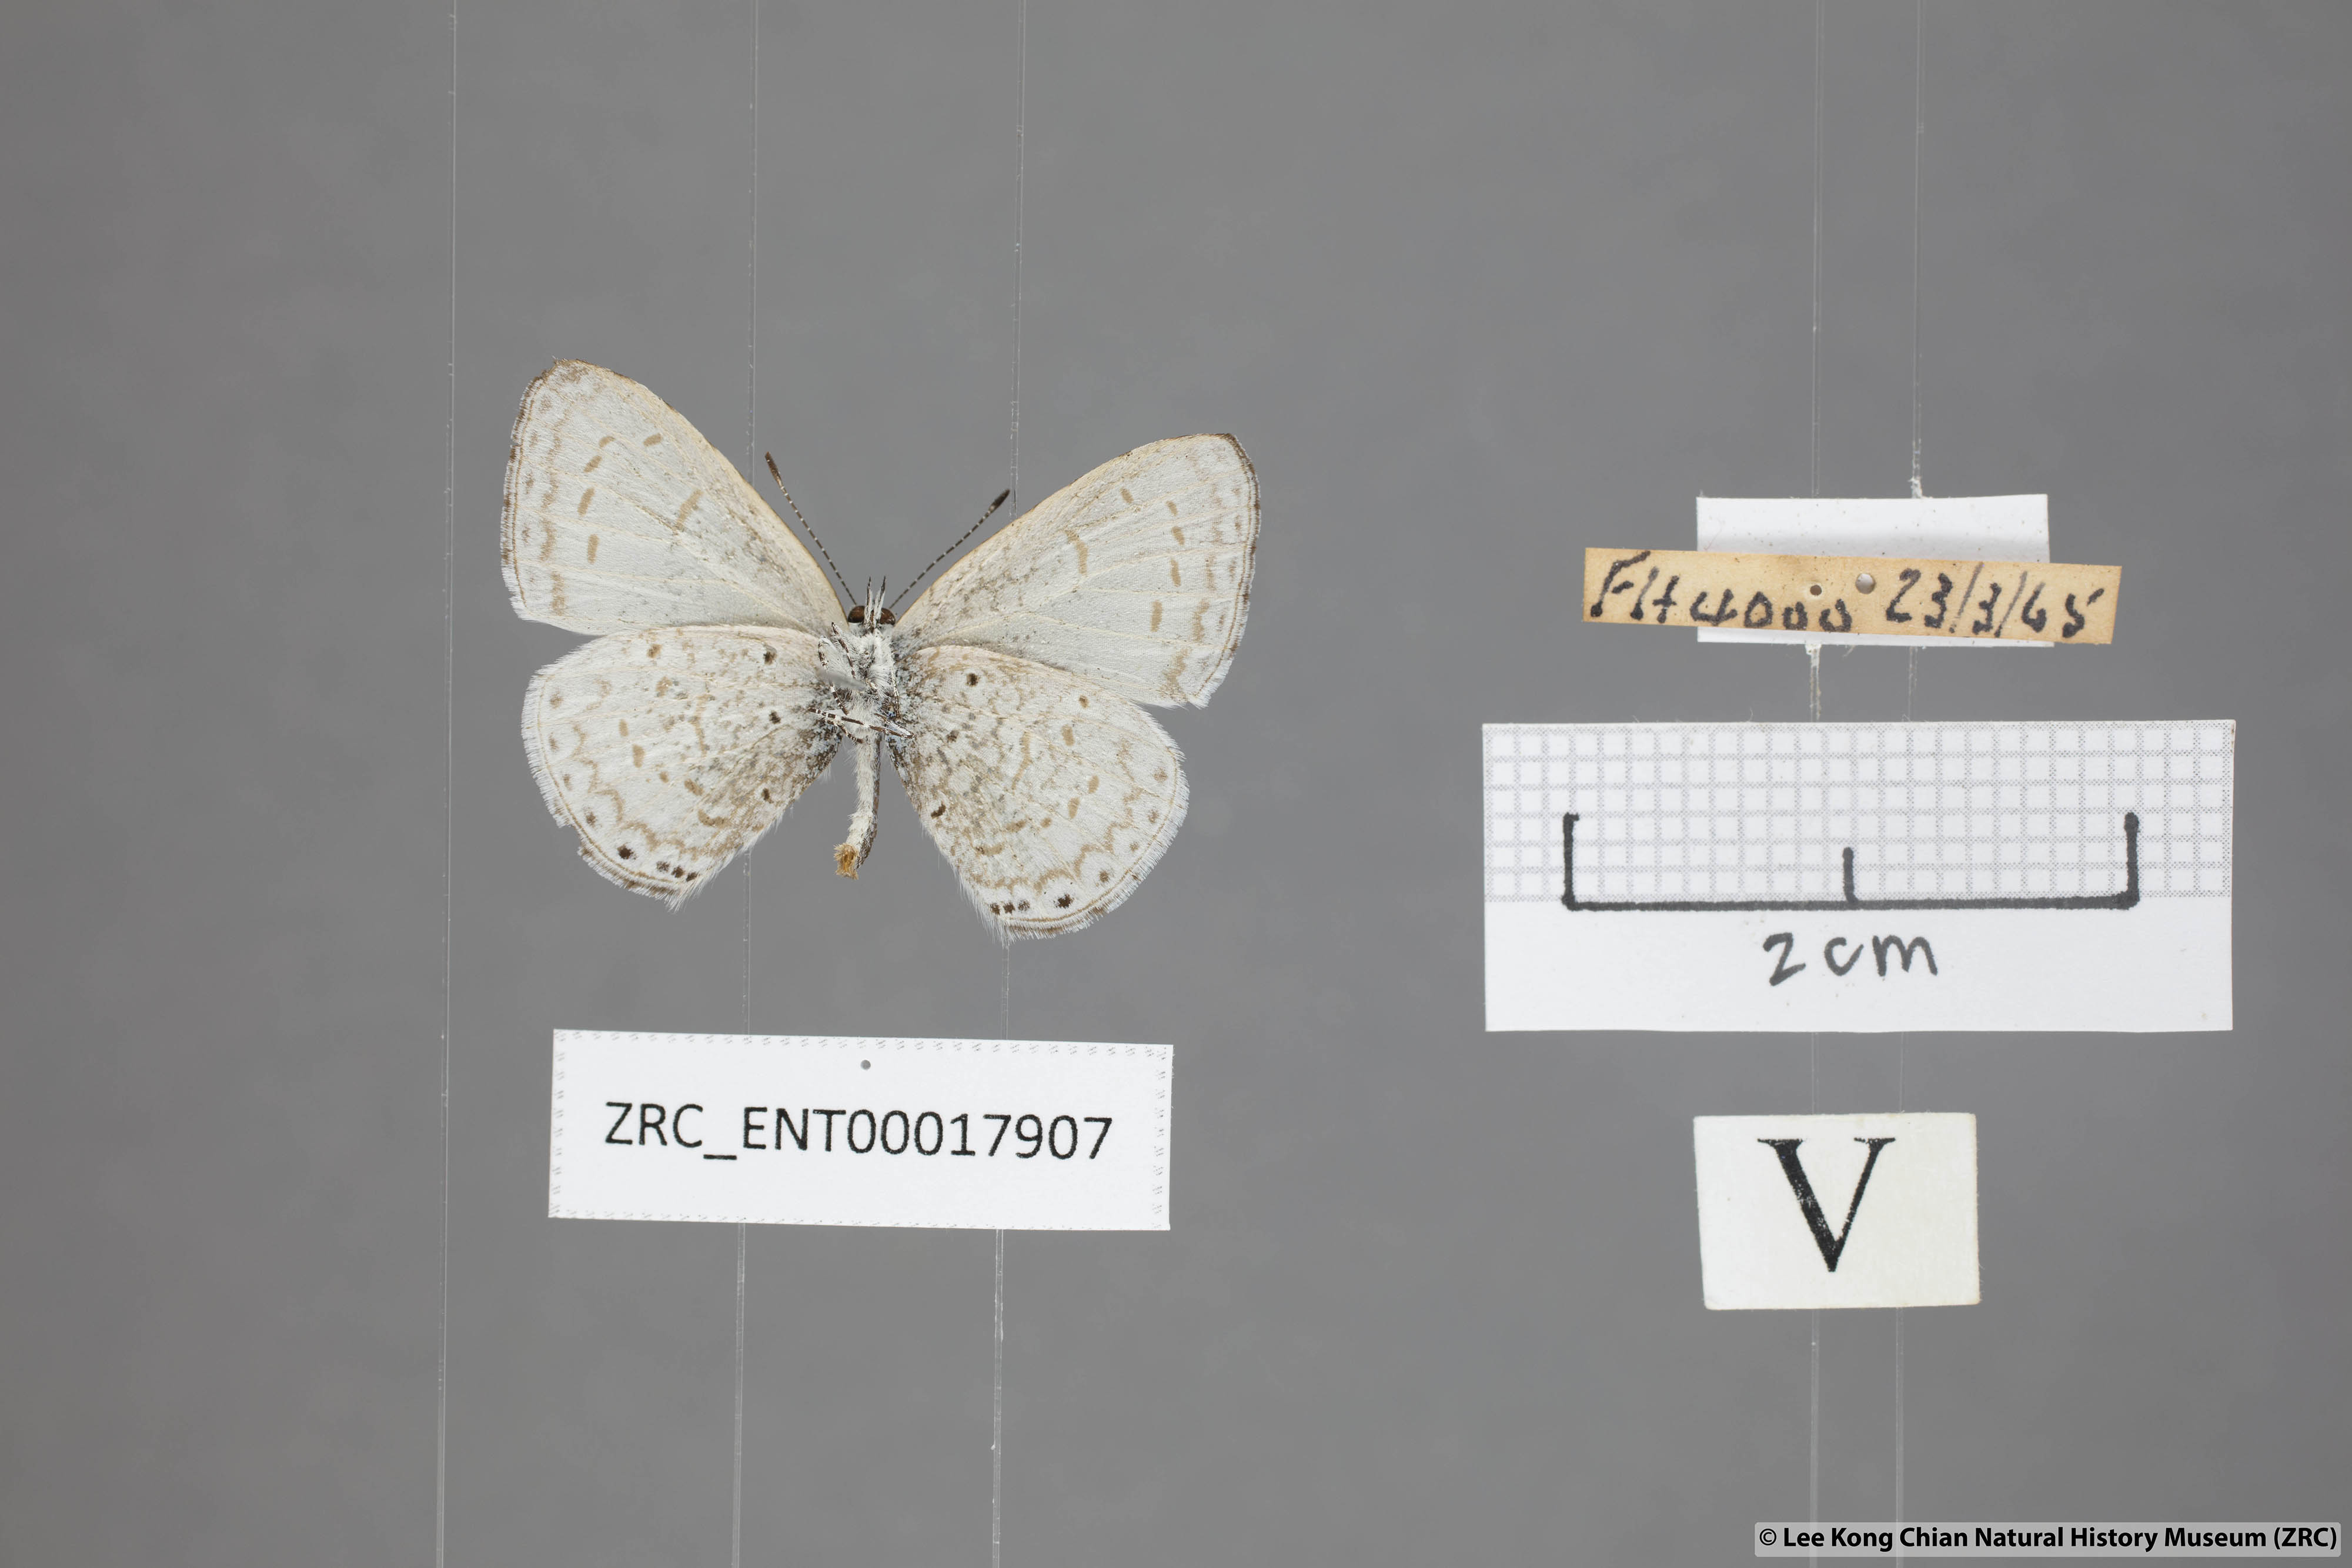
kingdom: Animalia
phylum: Arthropoda
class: Insecta
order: Lepidoptera
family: Lycaenidae
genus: Udara
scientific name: Udara
